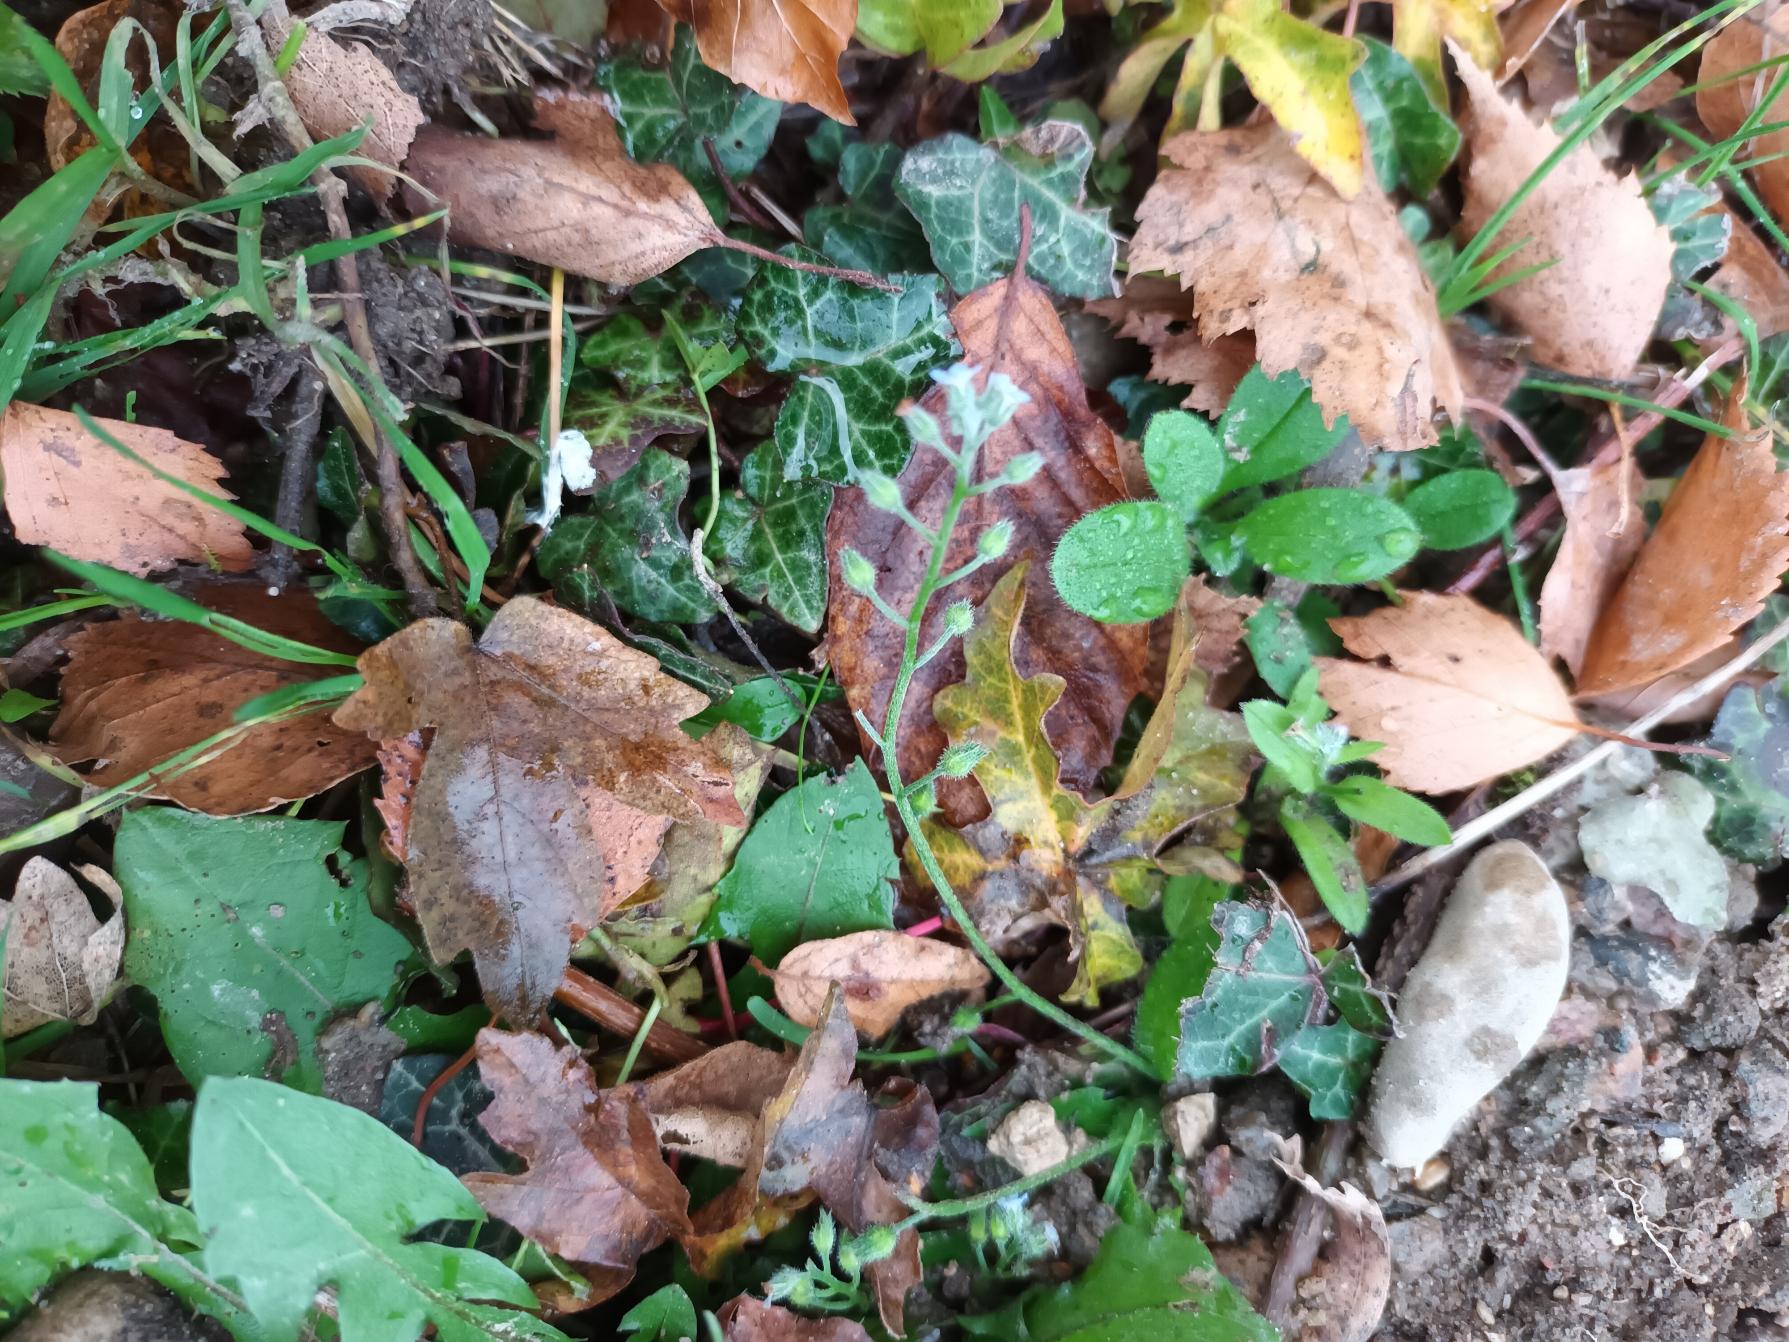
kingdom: Plantae
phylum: Tracheophyta
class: Magnoliopsida
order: Boraginales
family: Boraginaceae
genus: Myosotis
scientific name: Myosotis arvensis
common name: Mark-forglemmigej
